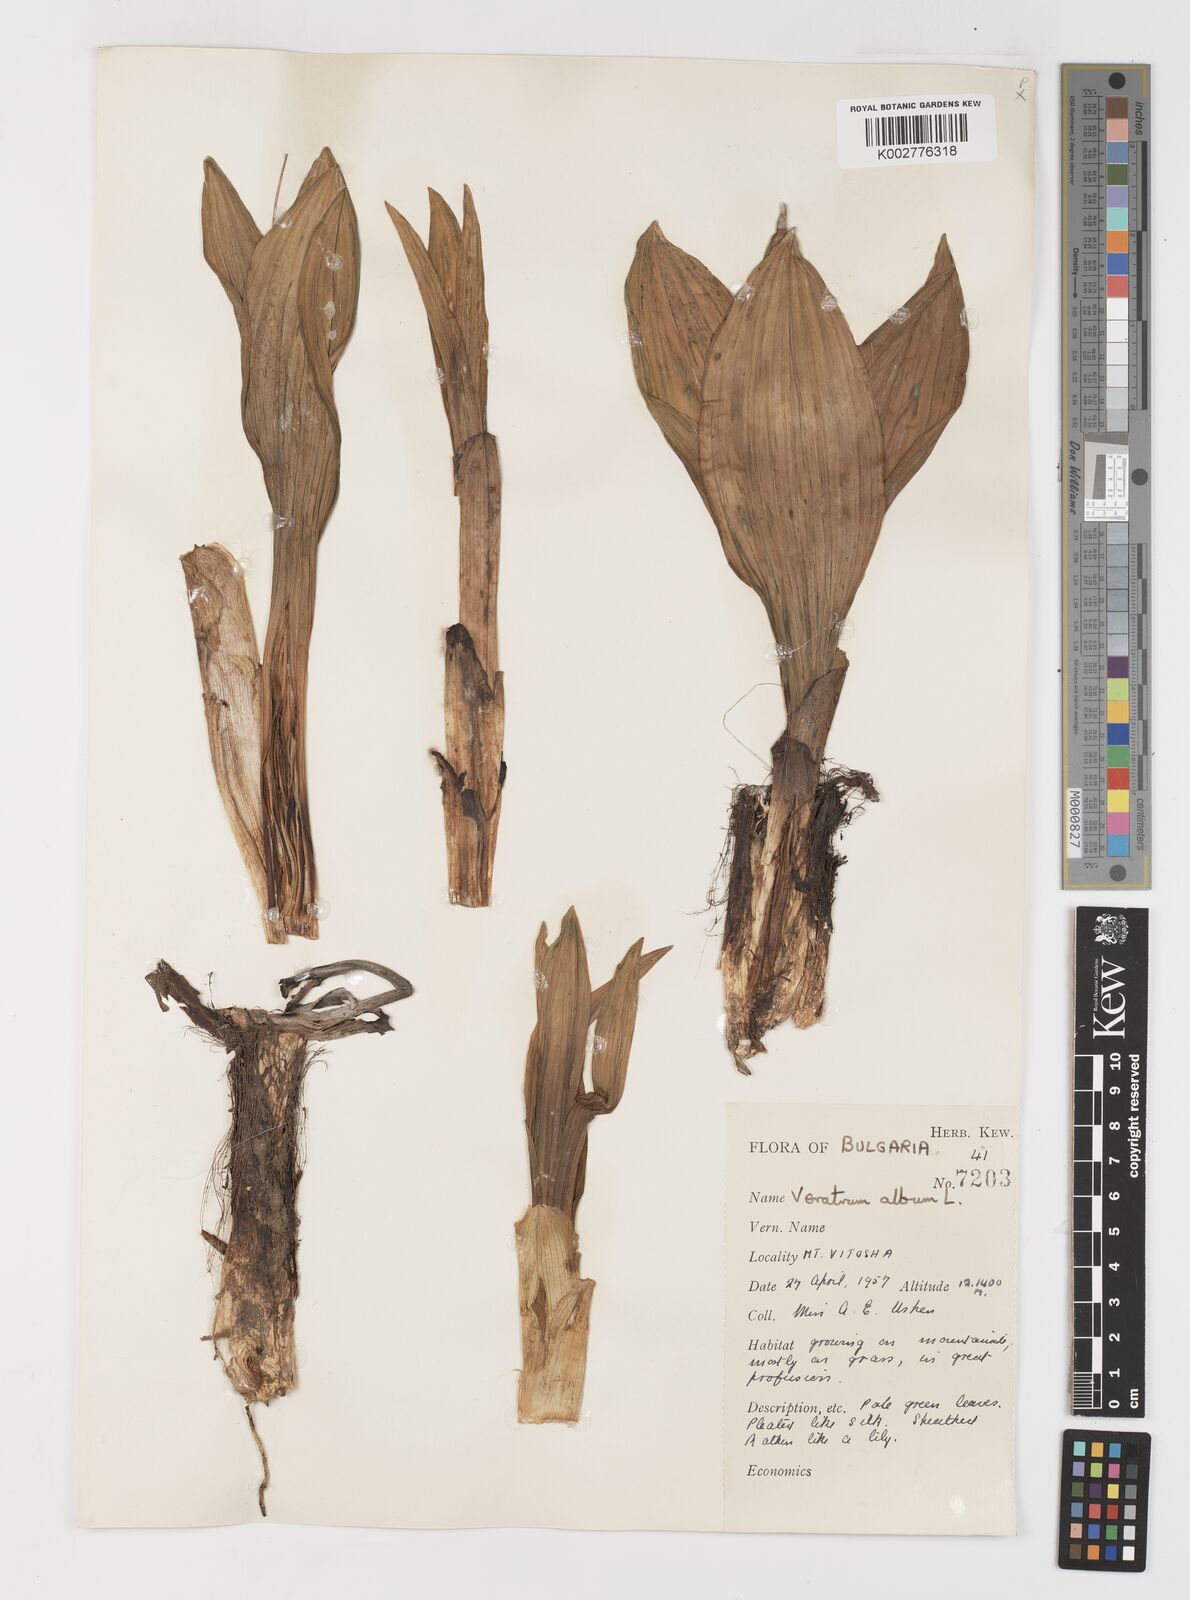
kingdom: Plantae
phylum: Tracheophyta
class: Liliopsida
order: Liliales
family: Melanthiaceae
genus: Veratrum
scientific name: Veratrum album
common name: White veratrum
